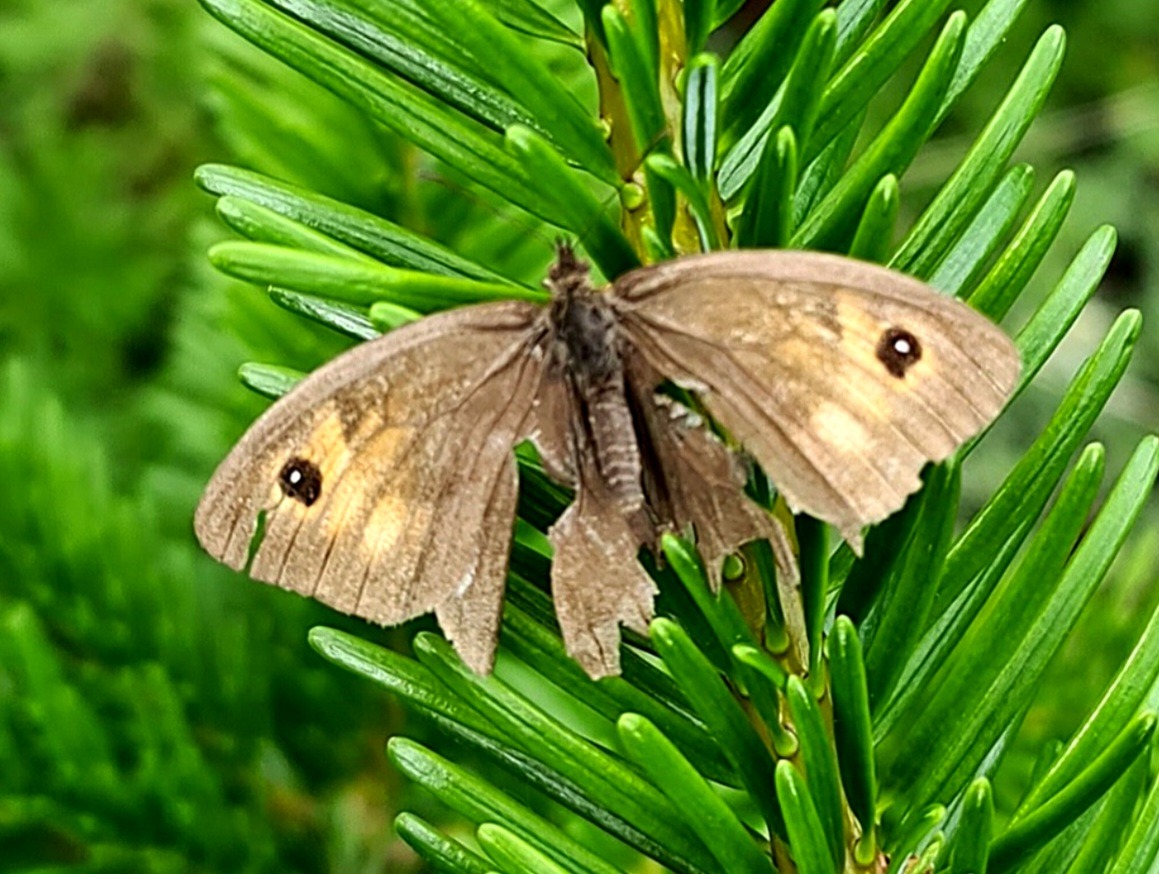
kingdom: Animalia
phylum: Arthropoda
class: Insecta
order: Lepidoptera
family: Nymphalidae
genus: Maniola
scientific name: Maniola jurtina
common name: Græsrandøje
